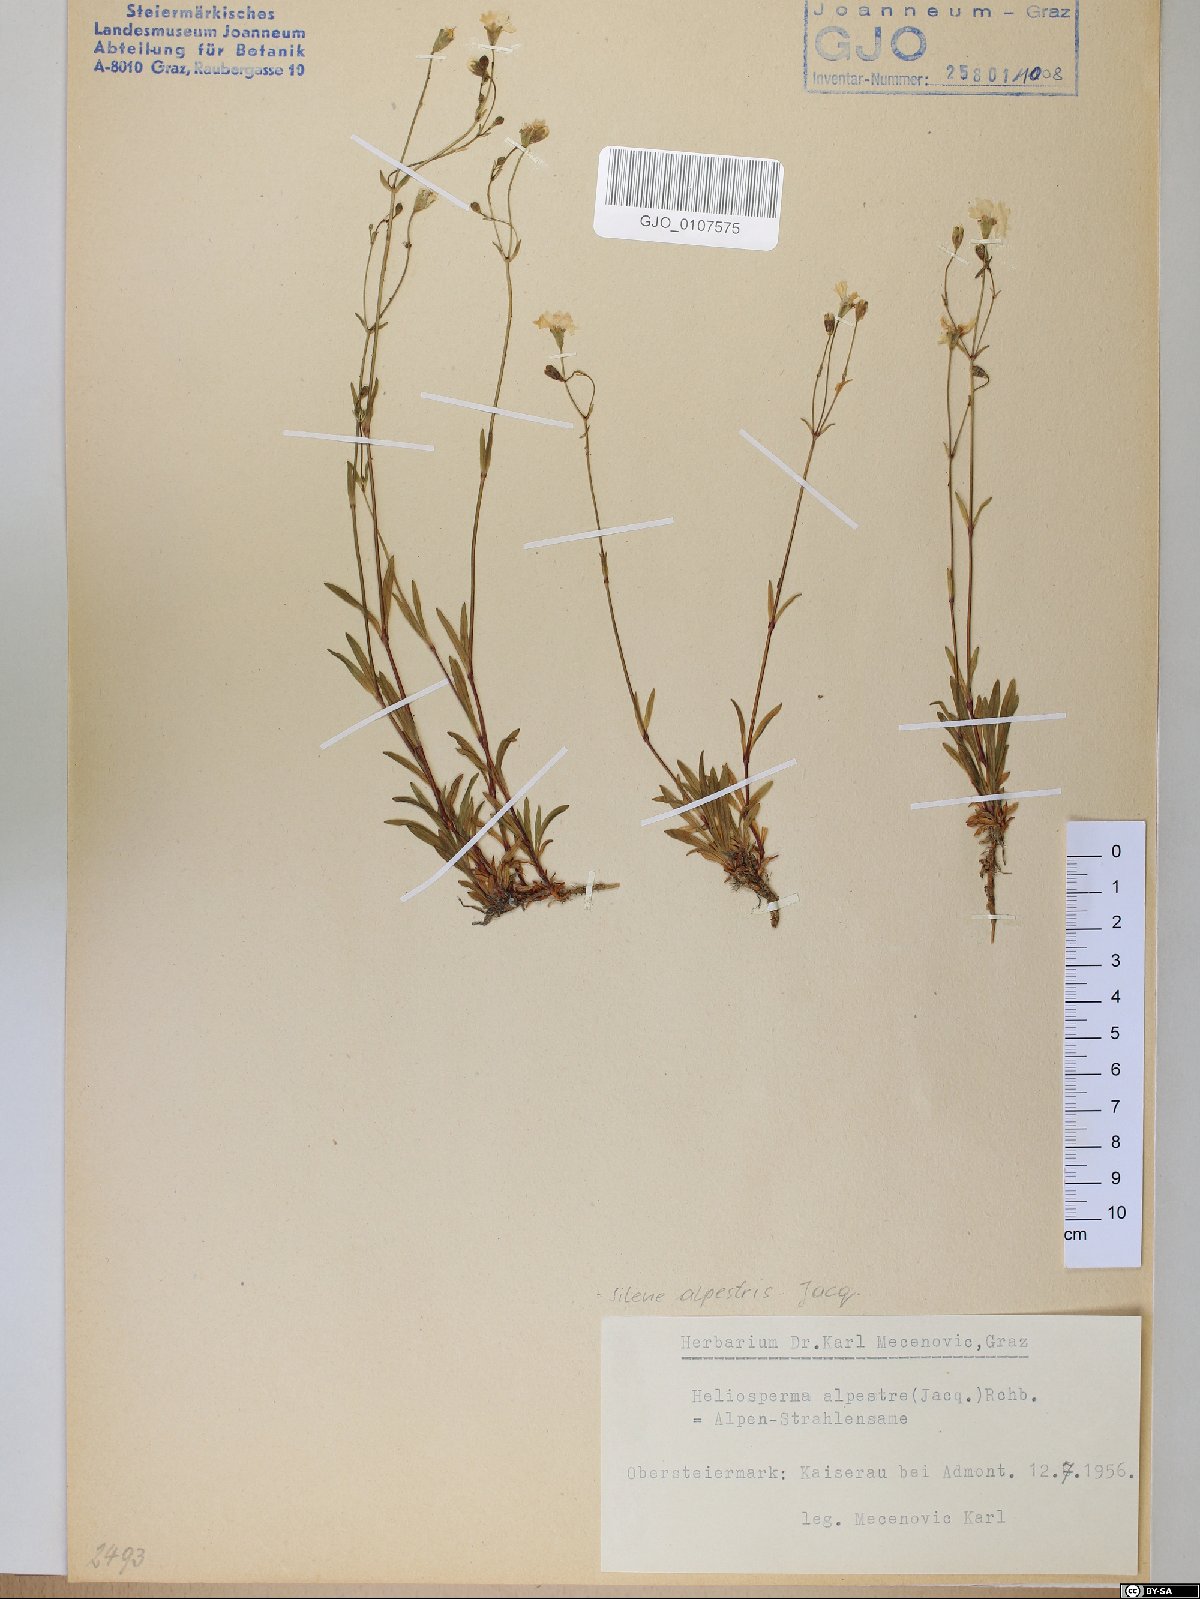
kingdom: Plantae
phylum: Tracheophyta
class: Magnoliopsida
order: Caryophyllales
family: Caryophyllaceae
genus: Heliosperma
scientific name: Heliosperma alpestre
